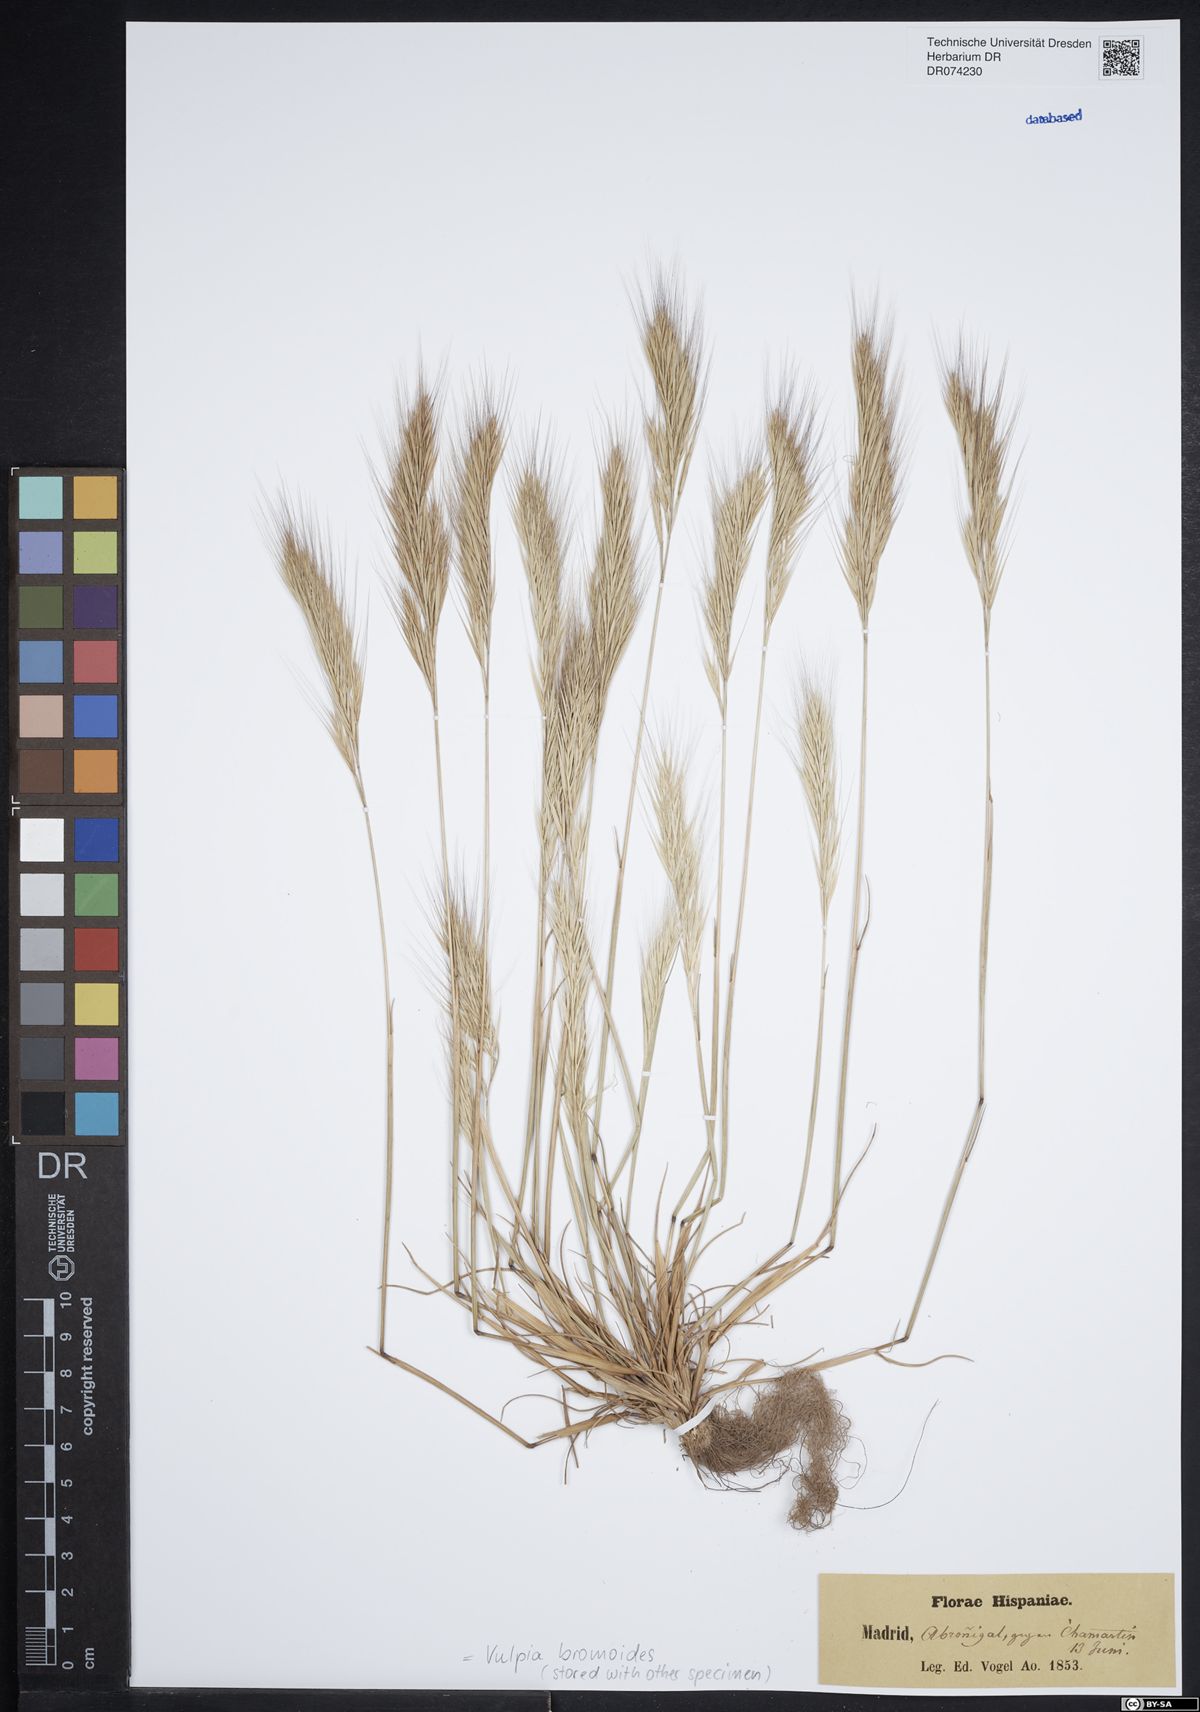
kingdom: Plantae
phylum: Tracheophyta
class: Liliopsida
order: Poales
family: Poaceae
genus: Festuca
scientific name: Festuca bromoides
